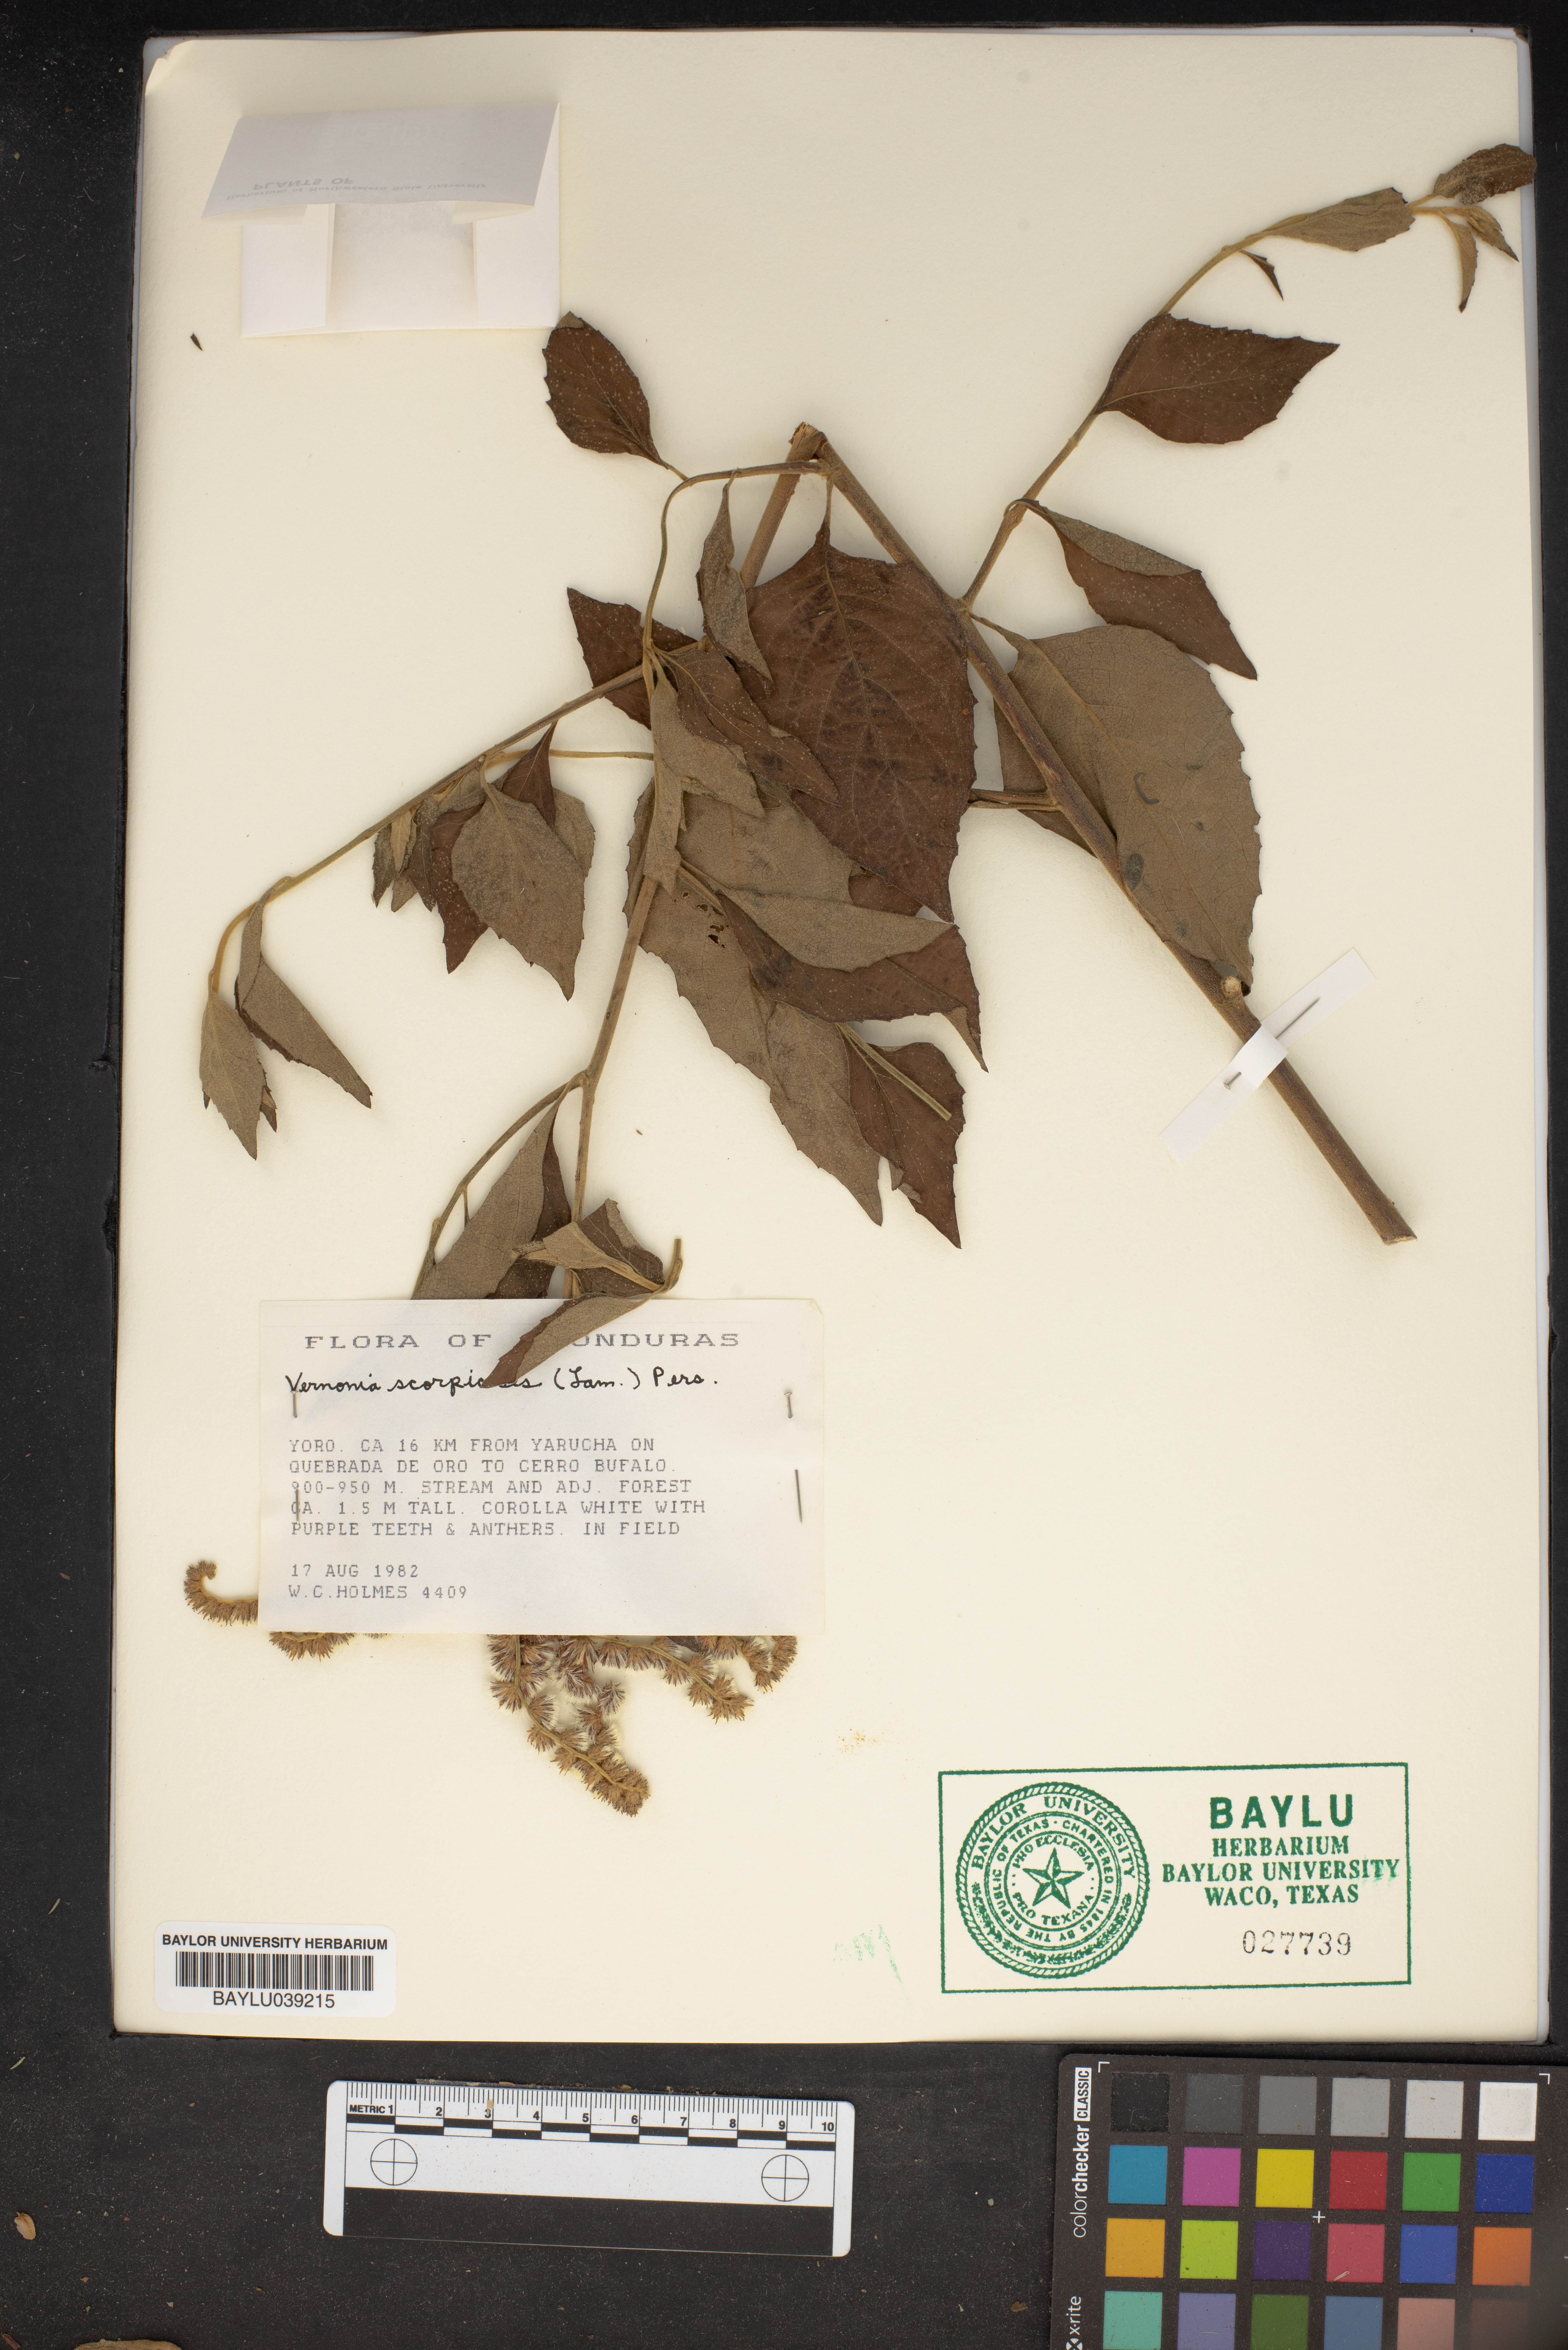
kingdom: Plantae
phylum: Tracheophyta
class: Magnoliopsida
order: Asterales
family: Asteraceae
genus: Cyrtocymura
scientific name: Cyrtocymura scorpioides
